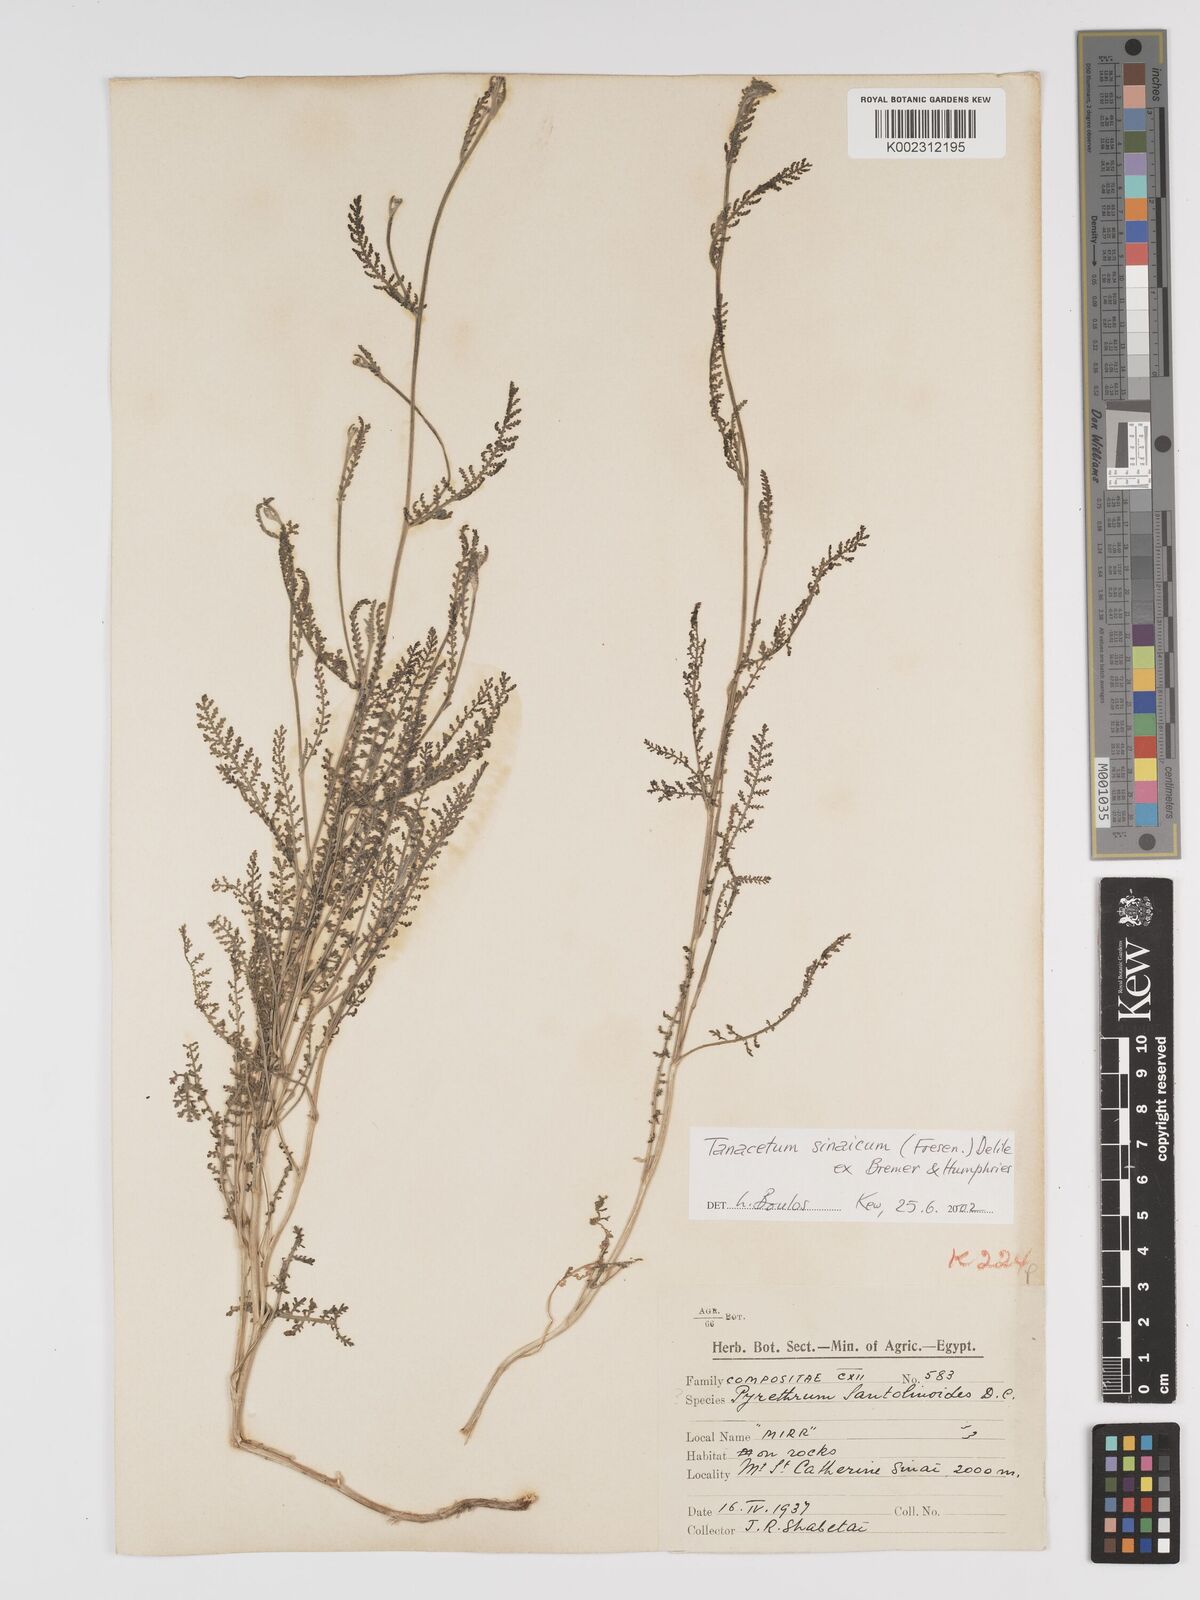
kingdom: Plantae
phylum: Tracheophyta
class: Magnoliopsida
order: Asterales
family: Asteraceae
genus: Tanacetum
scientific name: Tanacetum sinaicum
